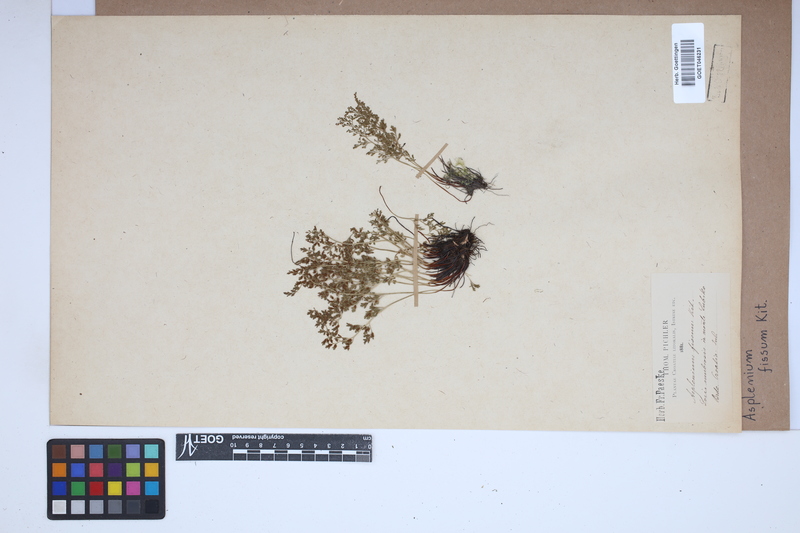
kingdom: Plantae
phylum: Tracheophyta
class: Polypodiopsida
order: Polypodiales
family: Aspleniaceae
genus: Asplenium
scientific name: Asplenium fissum
